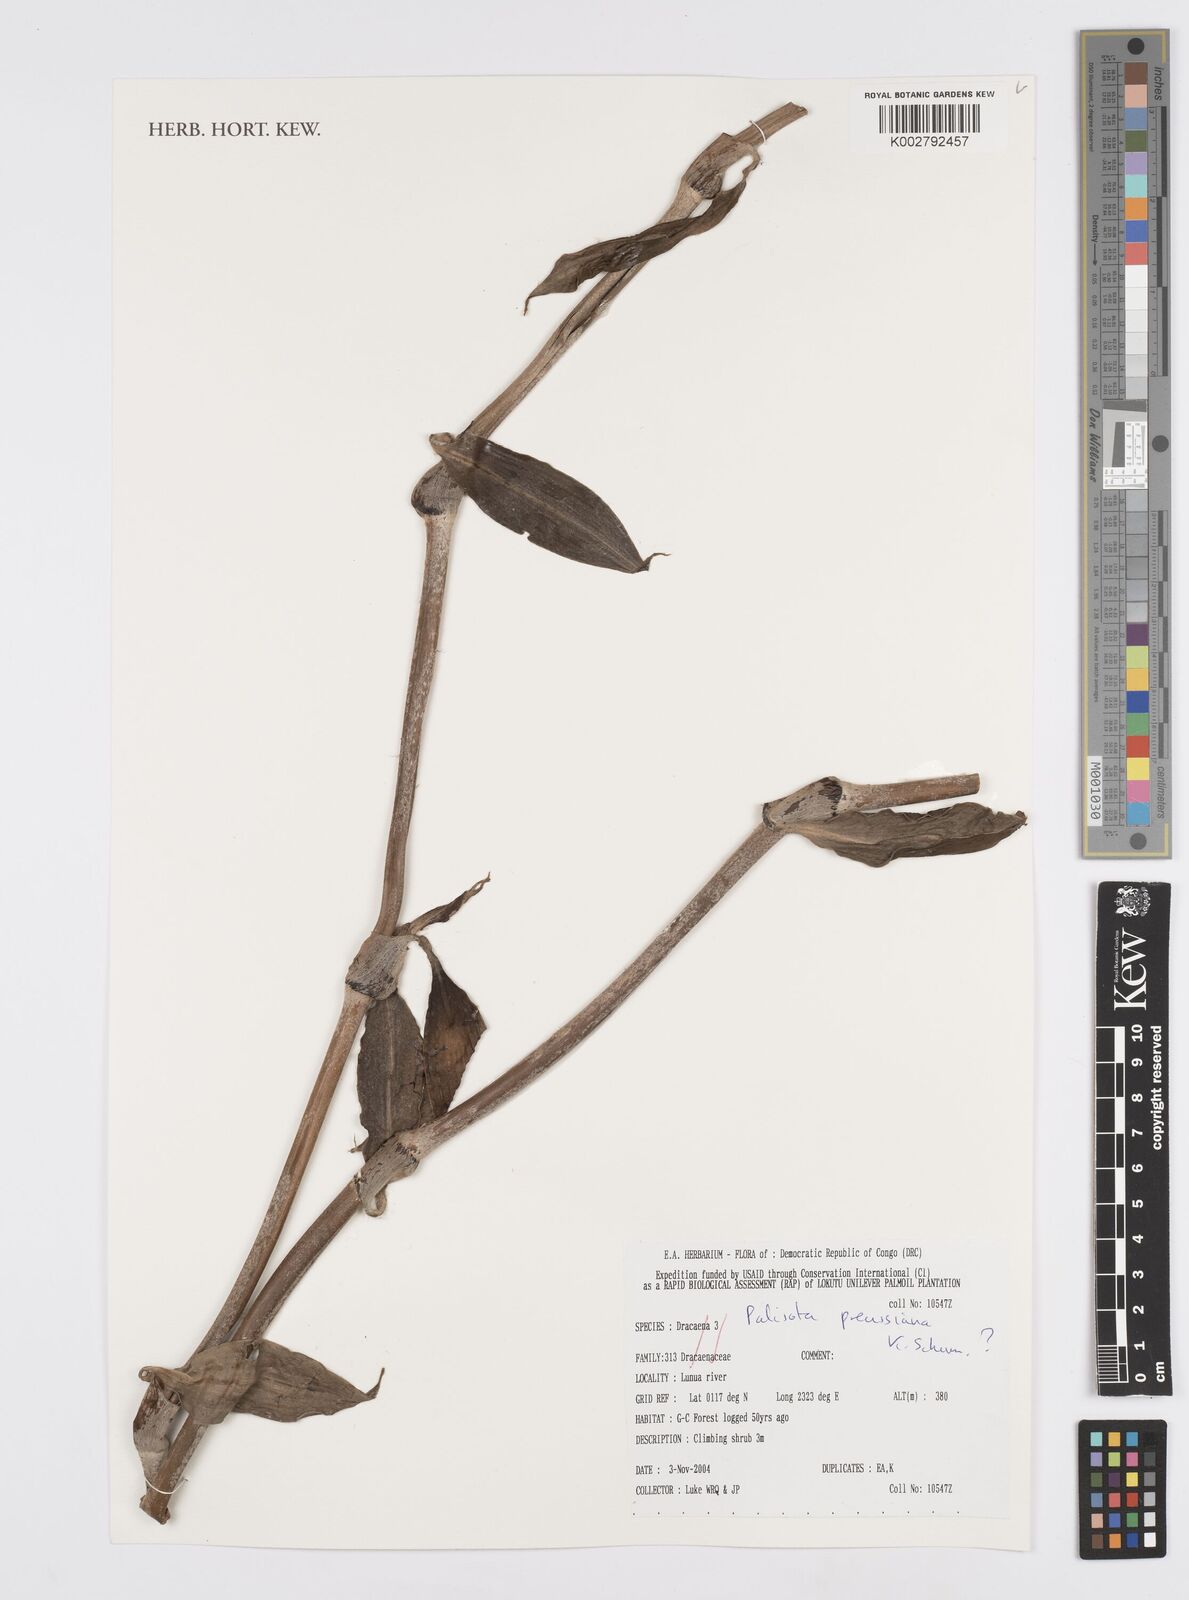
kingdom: Plantae
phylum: Tracheophyta
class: Liliopsida
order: Commelinales
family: Commelinaceae
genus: Palisota
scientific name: Palisota preussiana
